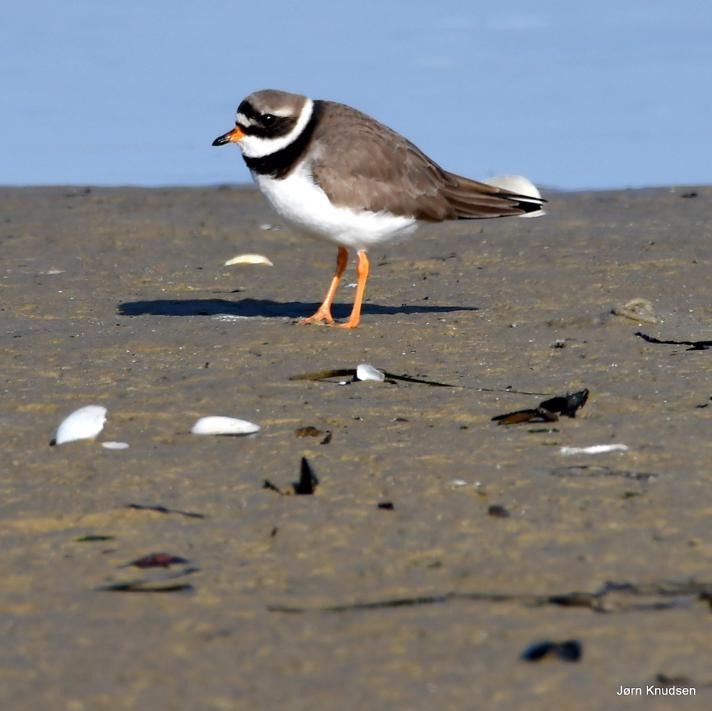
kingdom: Animalia
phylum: Chordata
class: Aves
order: Charadriiformes
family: Charadriidae
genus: Charadrius
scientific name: Charadrius hiaticula
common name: Stor præstekrave
